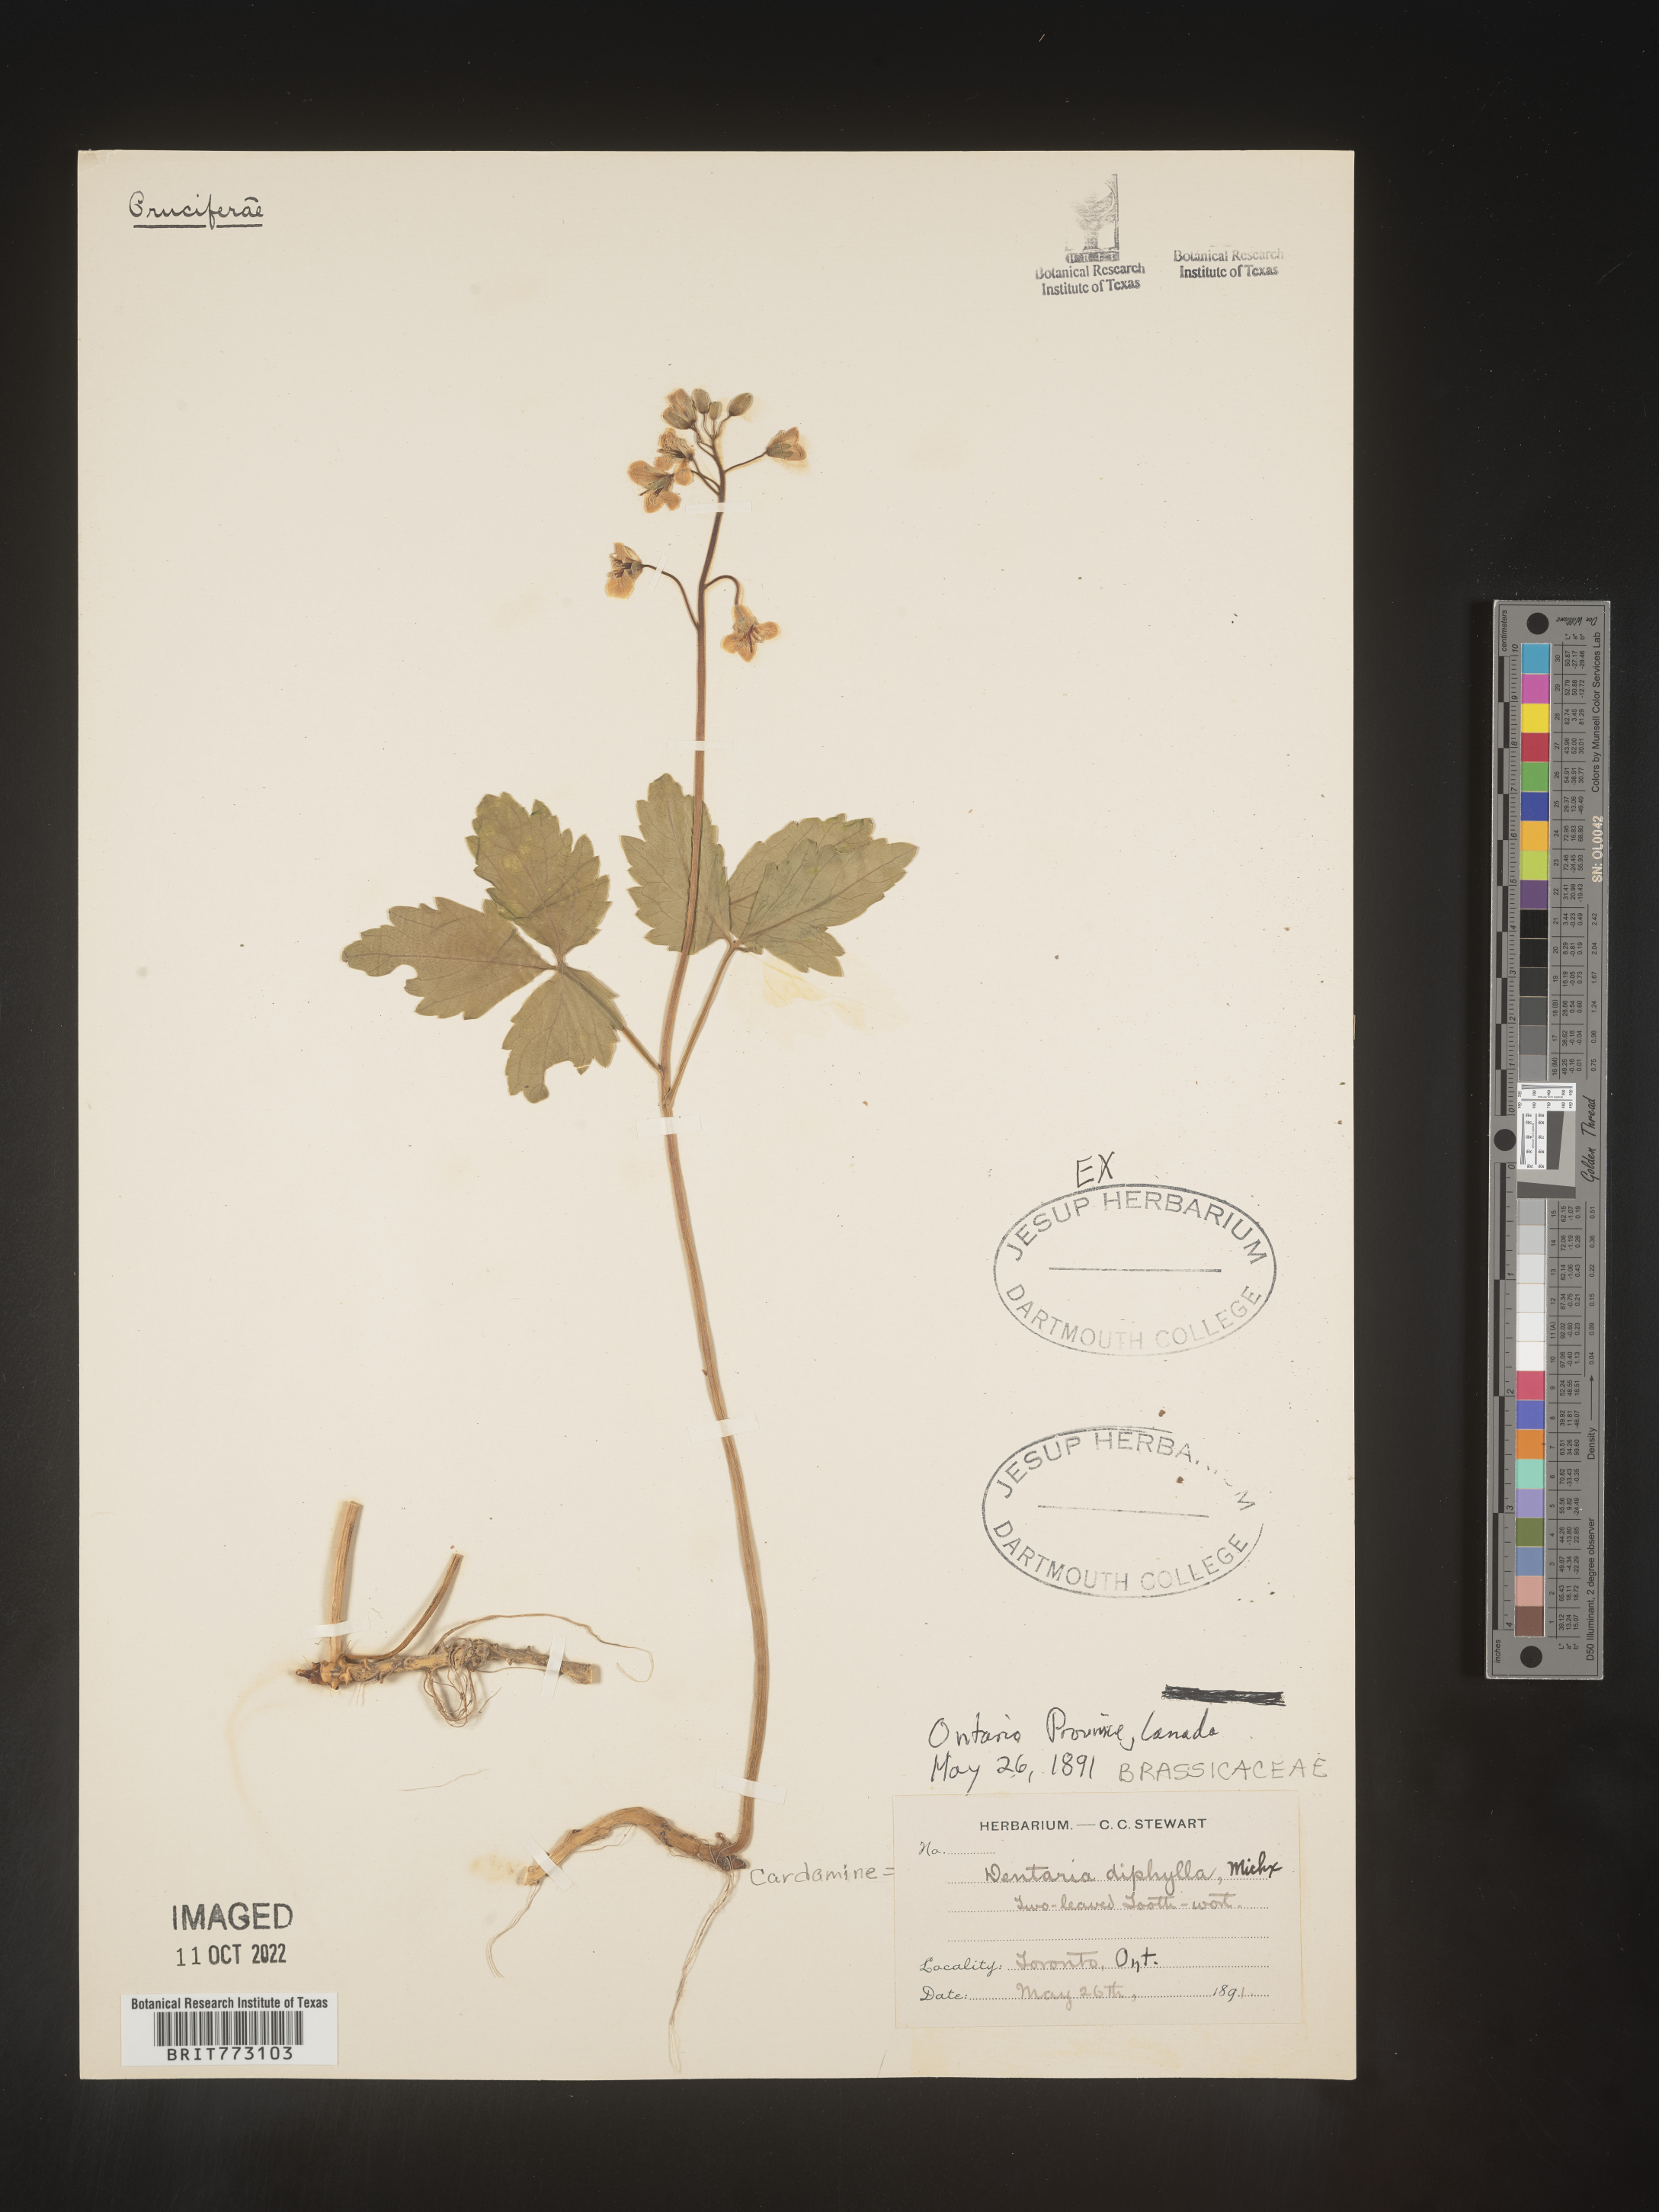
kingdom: Plantae
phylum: Tracheophyta
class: Magnoliopsida
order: Brassicales
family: Brassicaceae
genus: Cardamine
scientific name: Cardamine diphylla
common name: Broad-leaved toothwort
